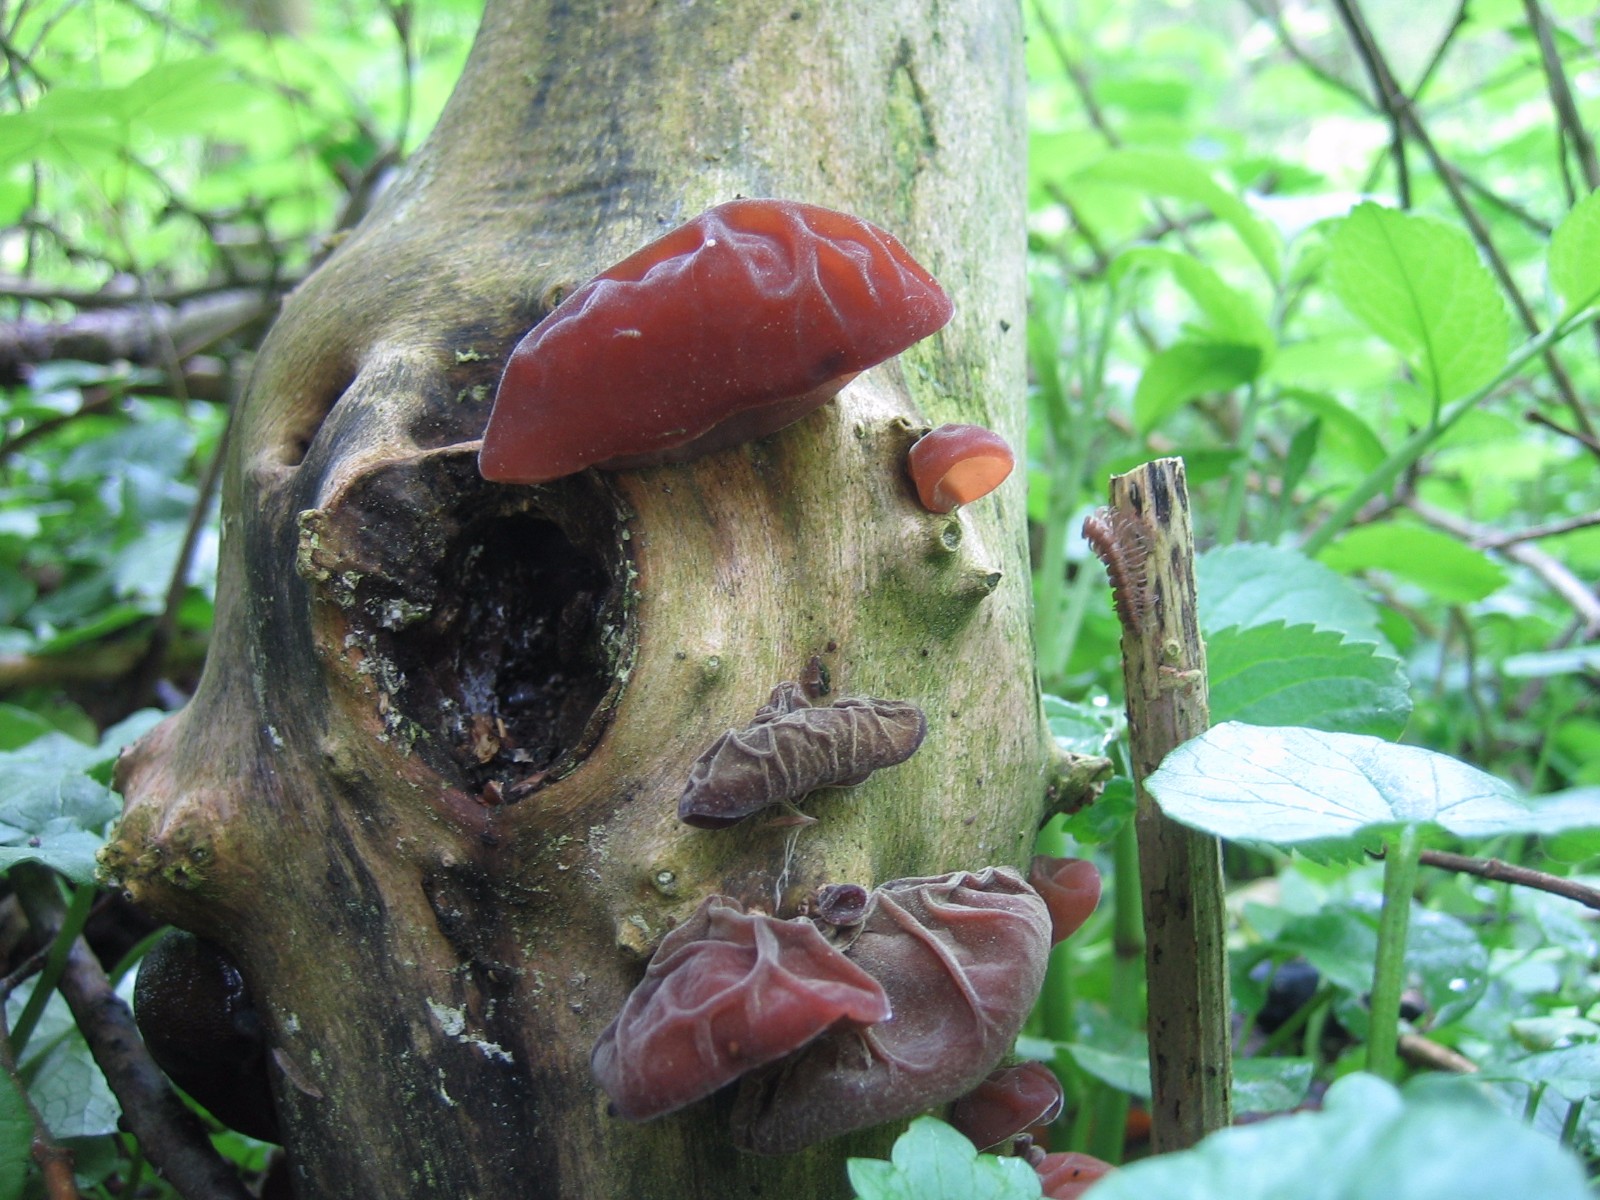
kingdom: Fungi
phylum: Basidiomycota
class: Agaricomycetes
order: Auriculariales
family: Auriculariaceae
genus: Auricularia
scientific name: Auricularia auricula-judae
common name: almindelig judasøre
